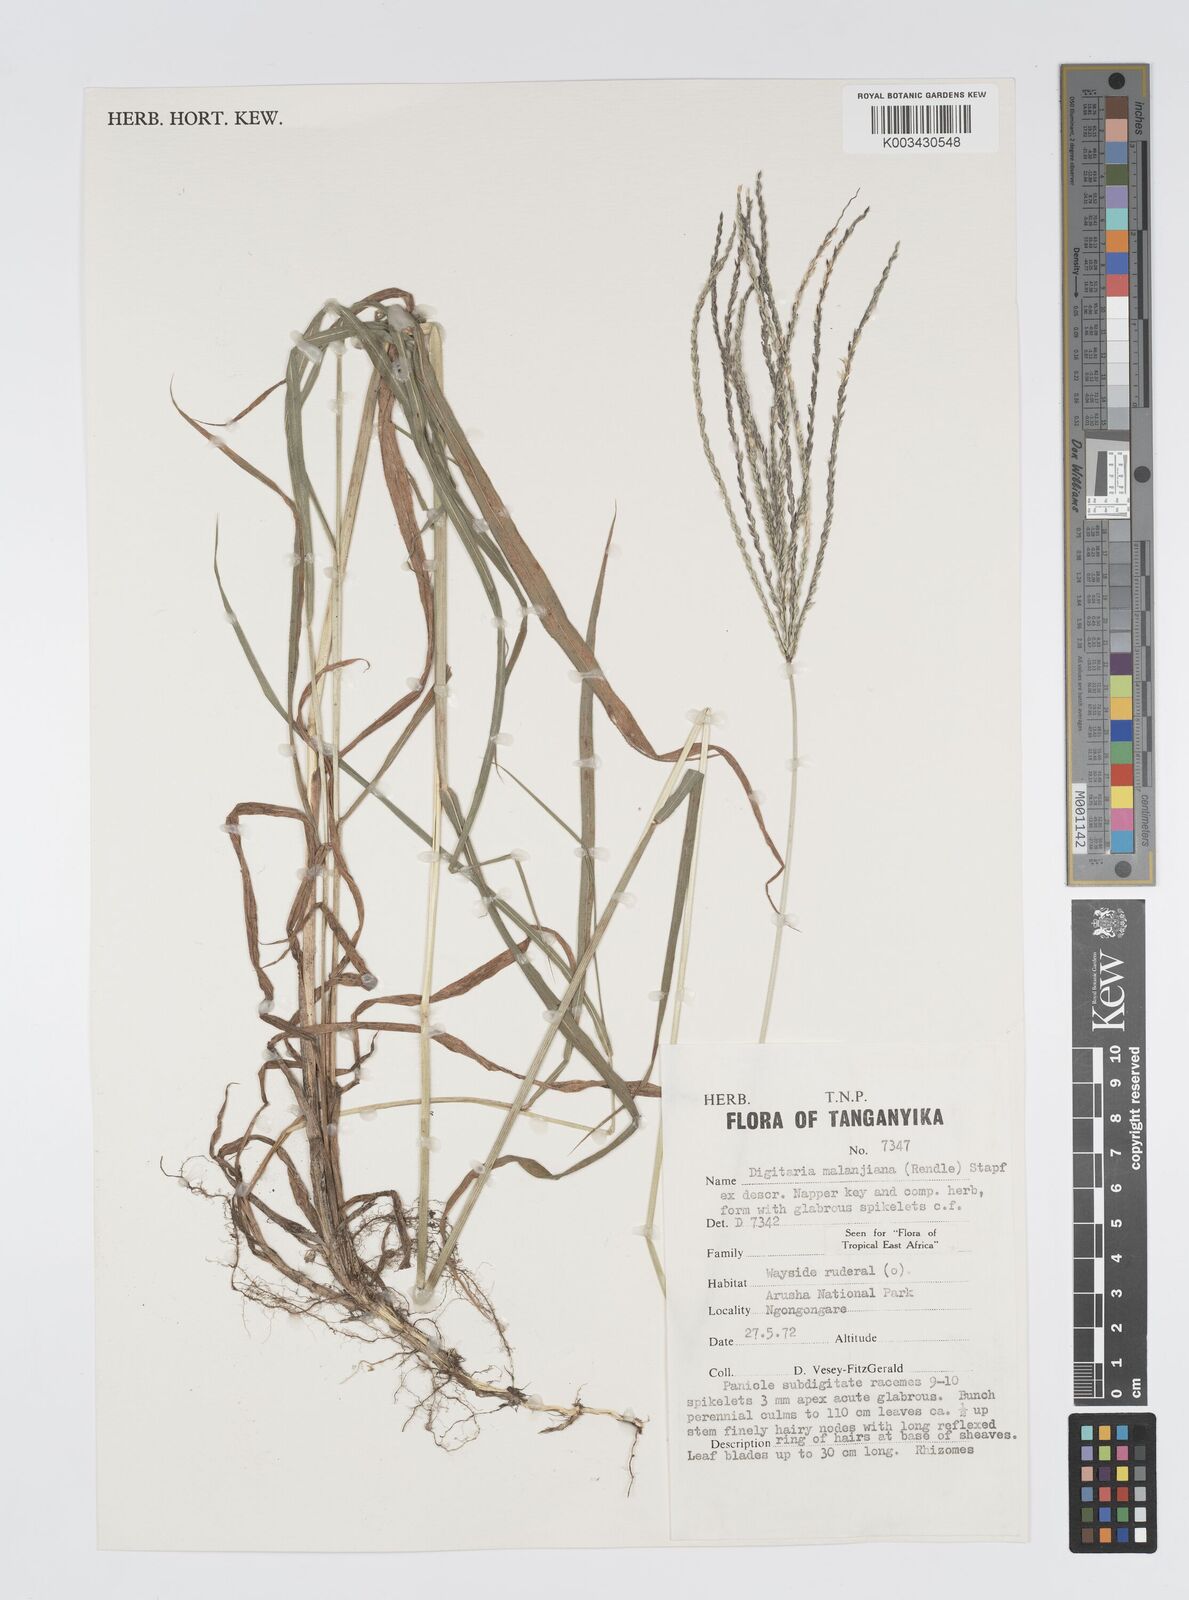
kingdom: Plantae
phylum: Tracheophyta
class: Liliopsida
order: Poales
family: Poaceae
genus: Digitaria
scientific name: Digitaria milanjiana
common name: Madagascar crabgrass
